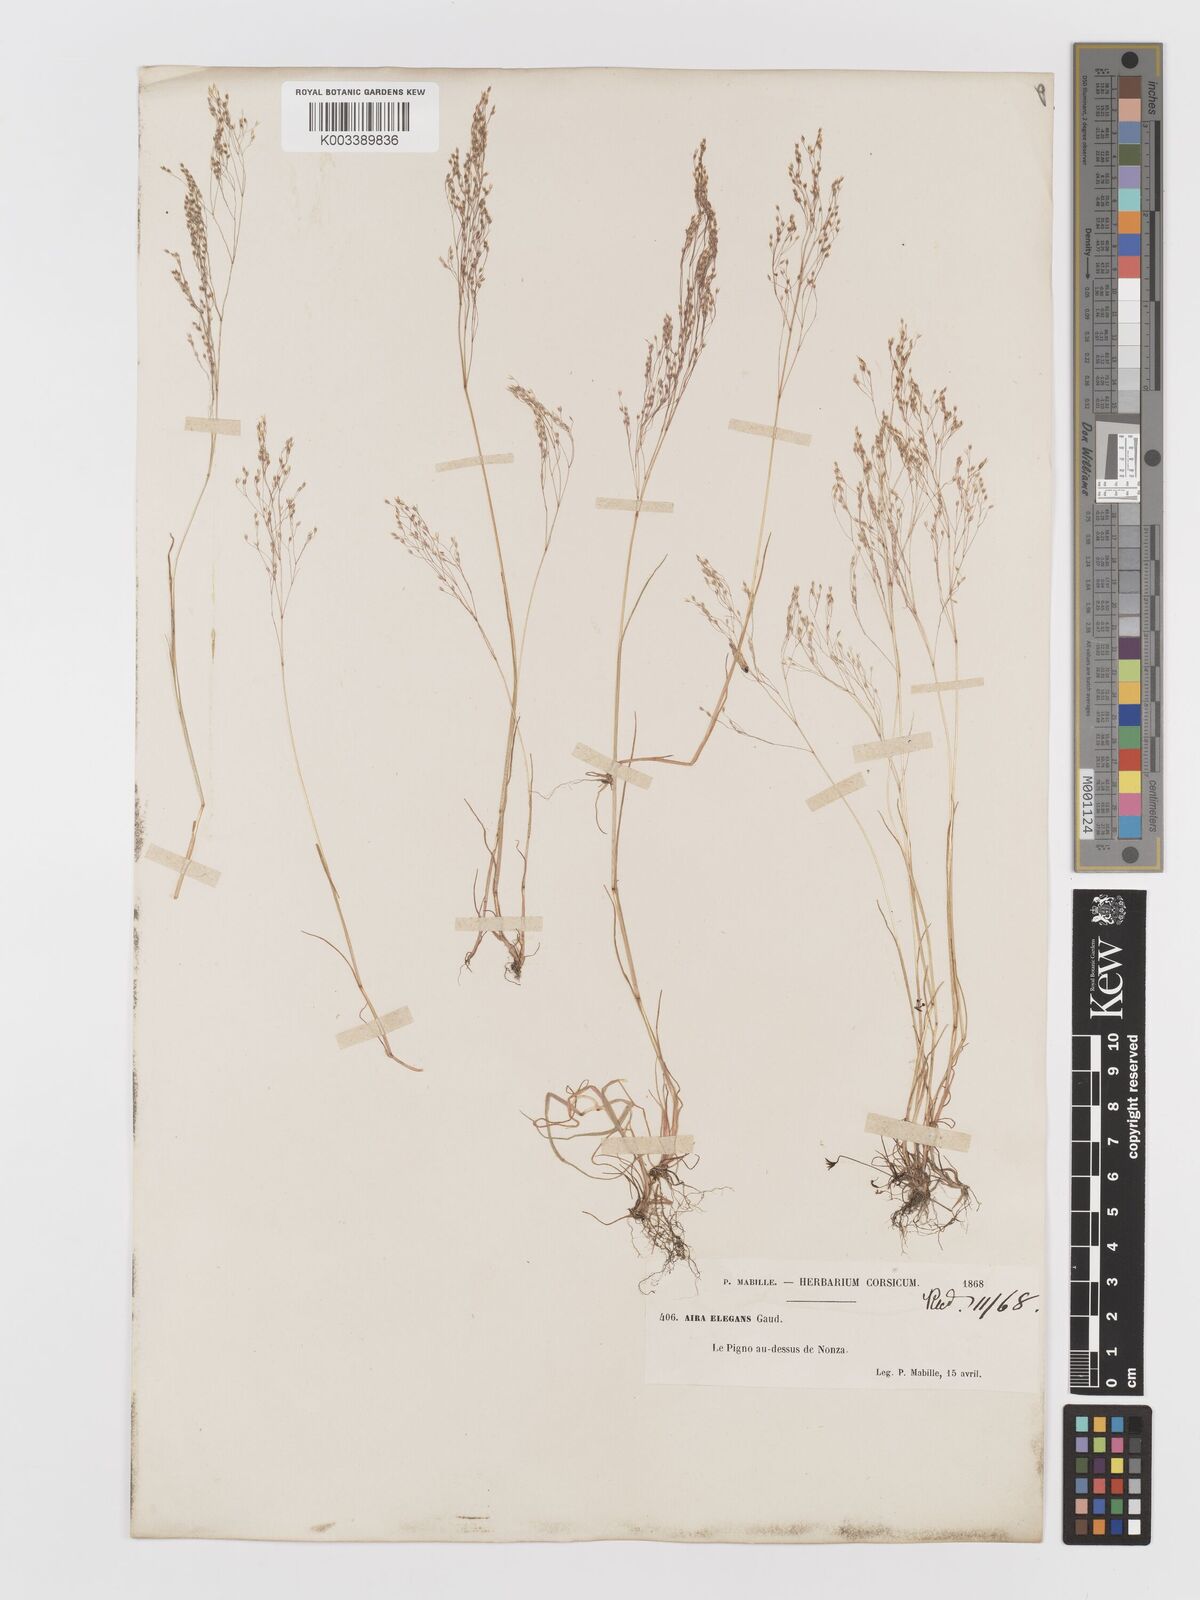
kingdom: Plantae
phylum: Tracheophyta
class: Liliopsida
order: Poales
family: Poaceae
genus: Aira
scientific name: Aira elegans
